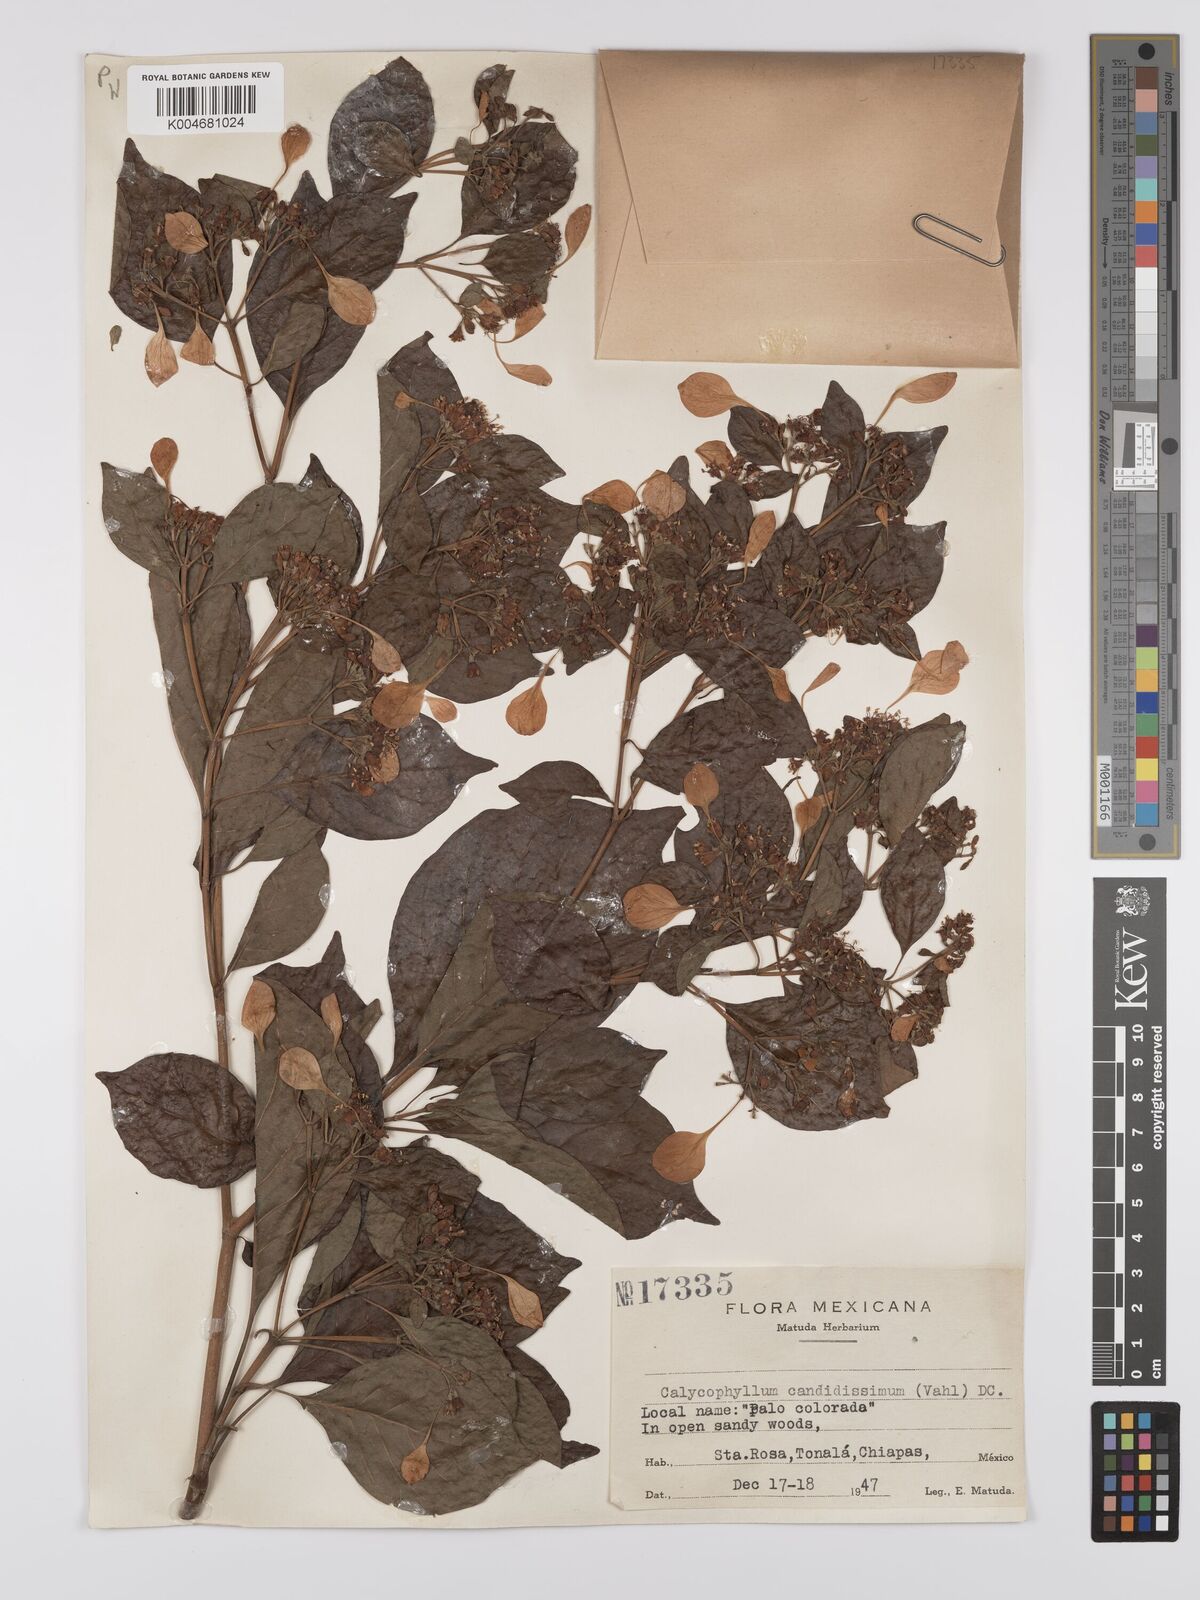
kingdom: Plantae
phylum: Tracheophyta
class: Magnoliopsida
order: Gentianales
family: Rubiaceae
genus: Calycophyllum
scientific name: Calycophyllum candidissimum
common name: Dagame
